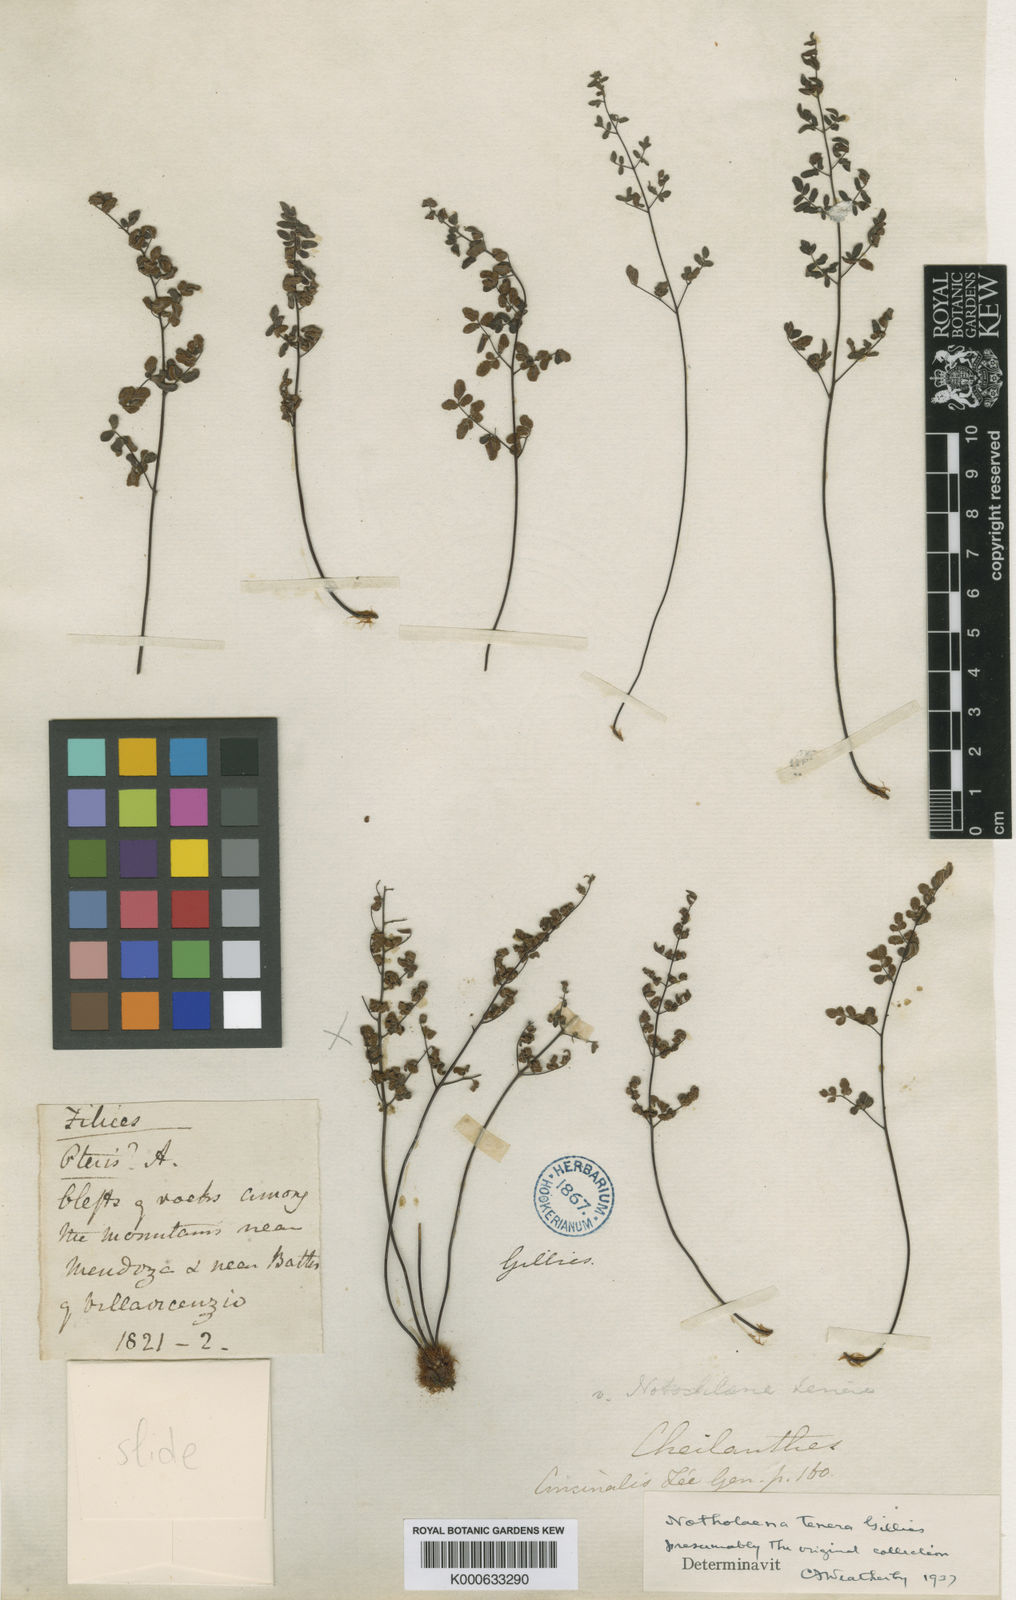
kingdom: Plantae
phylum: Tracheophyta
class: Polypodiopsida
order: Polypodiales
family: Pteridaceae
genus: Cheilanthes
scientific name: Cheilanthes
